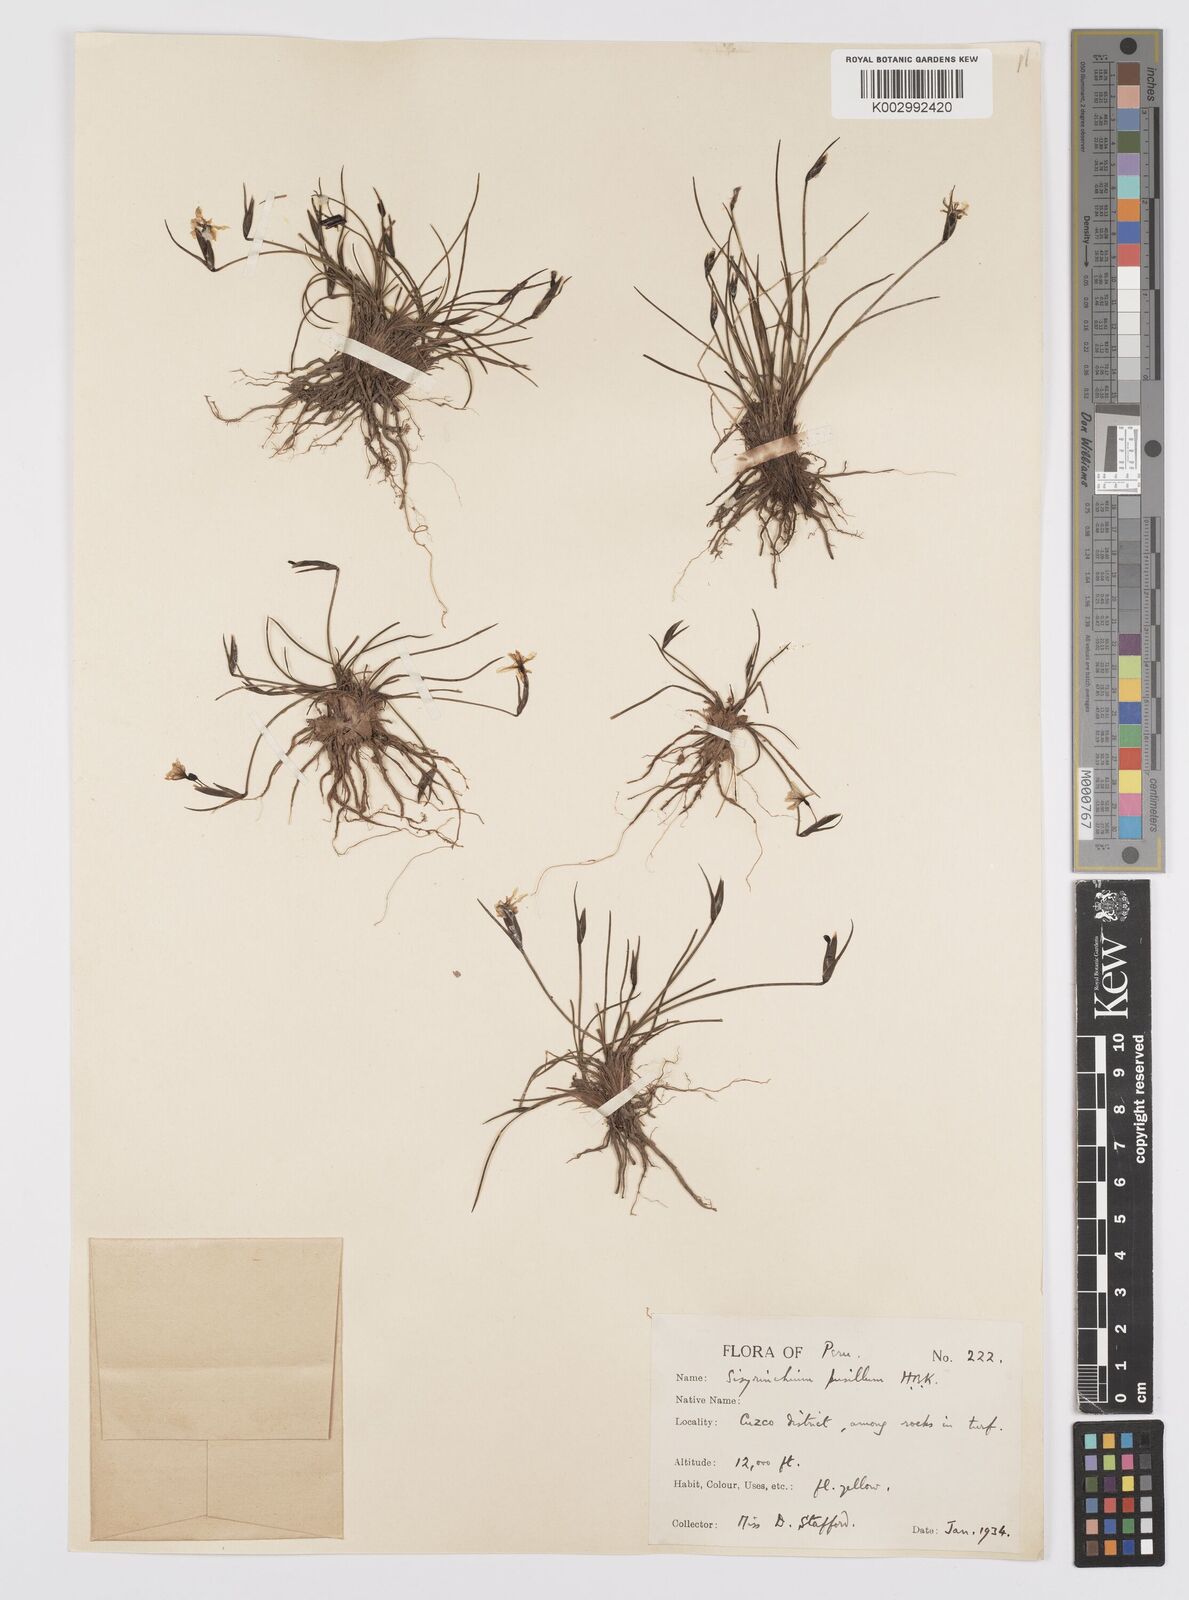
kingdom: Plantae
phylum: Tracheophyta
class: Liliopsida
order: Asparagales
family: Iridaceae
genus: Sisyrinchium
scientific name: Sisyrinchium pusillum
